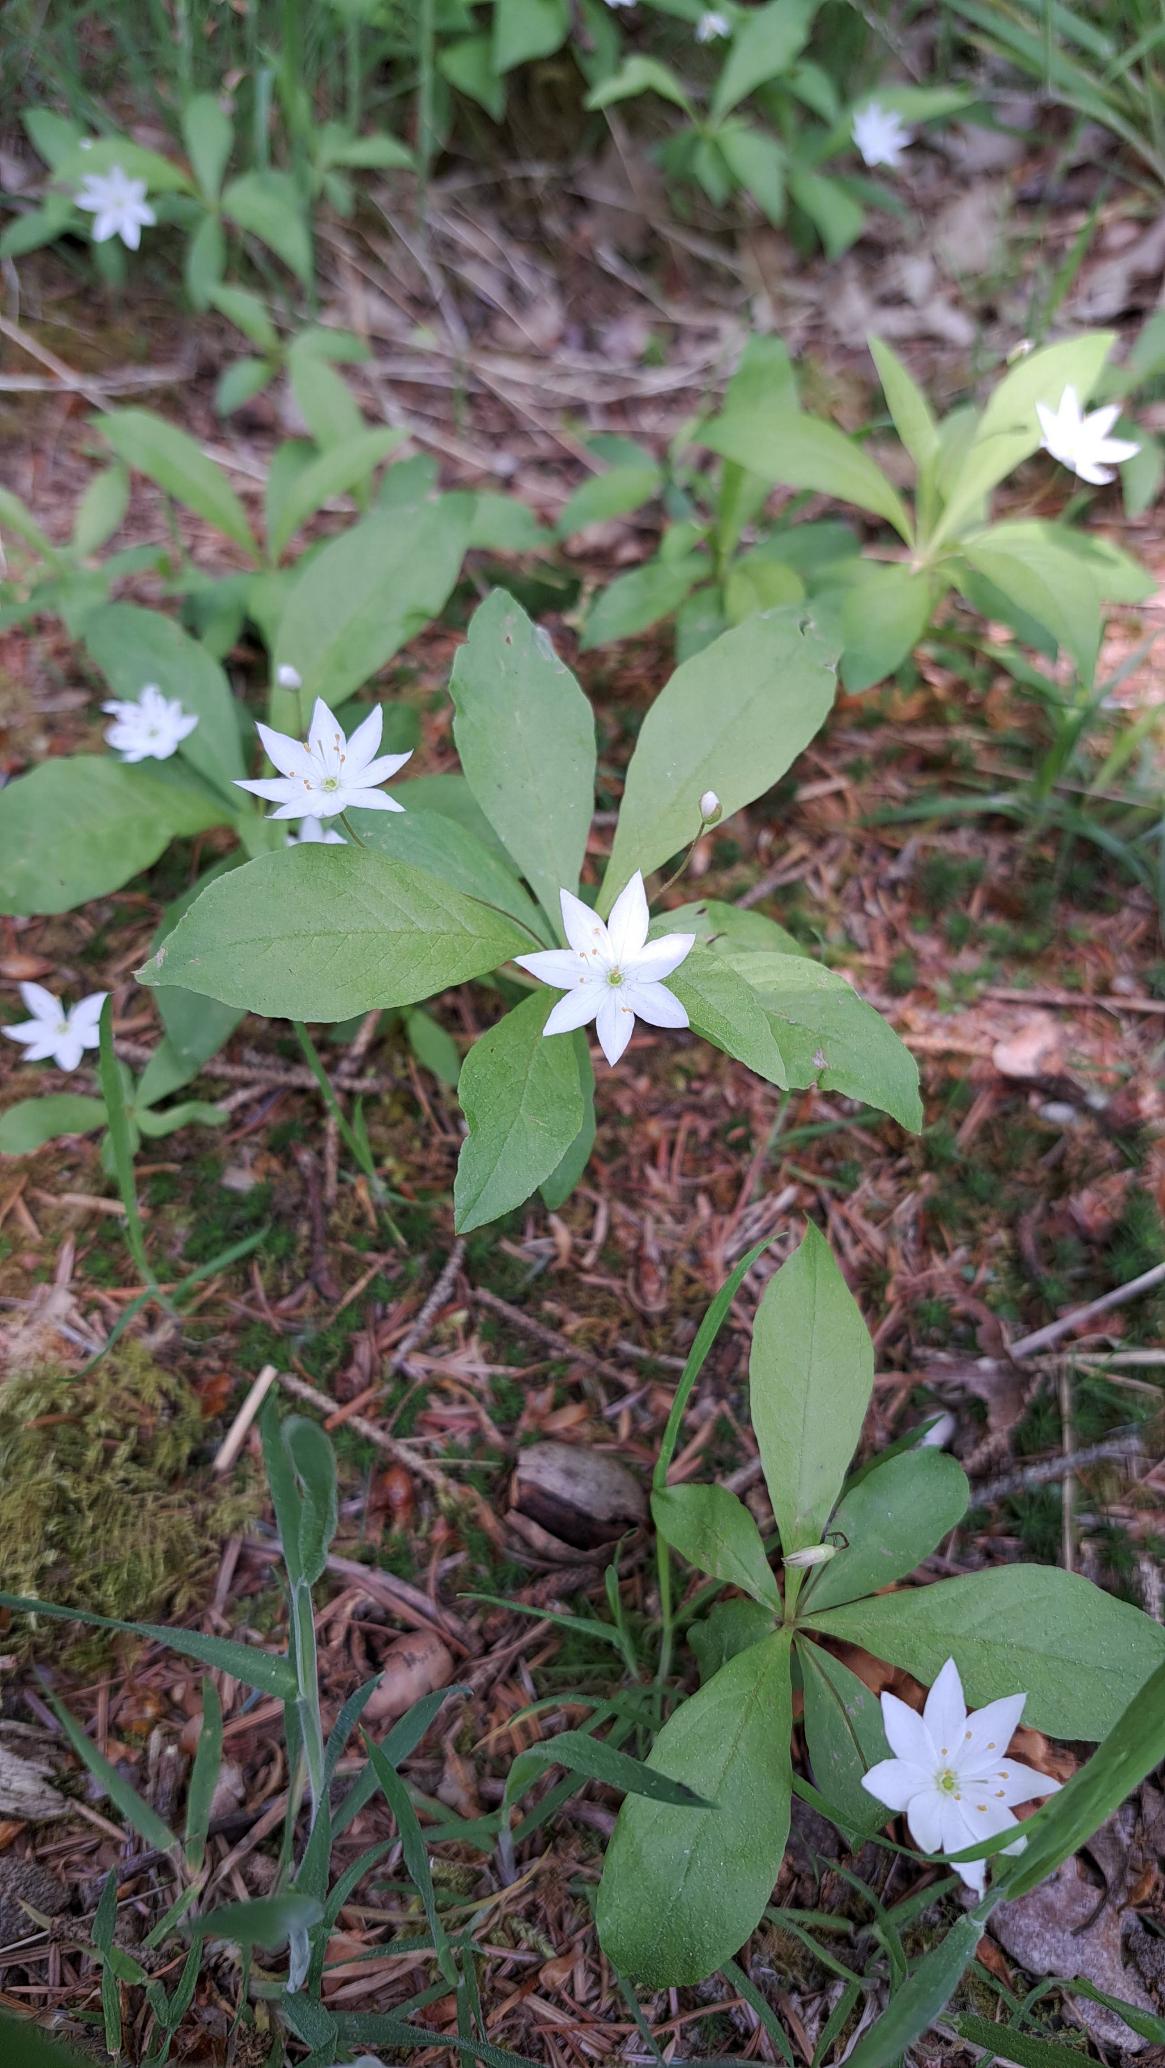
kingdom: Plantae
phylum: Tracheophyta
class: Magnoliopsida
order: Ericales
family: Primulaceae
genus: Lysimachia
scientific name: Lysimachia europaea
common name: Skovstjerne
